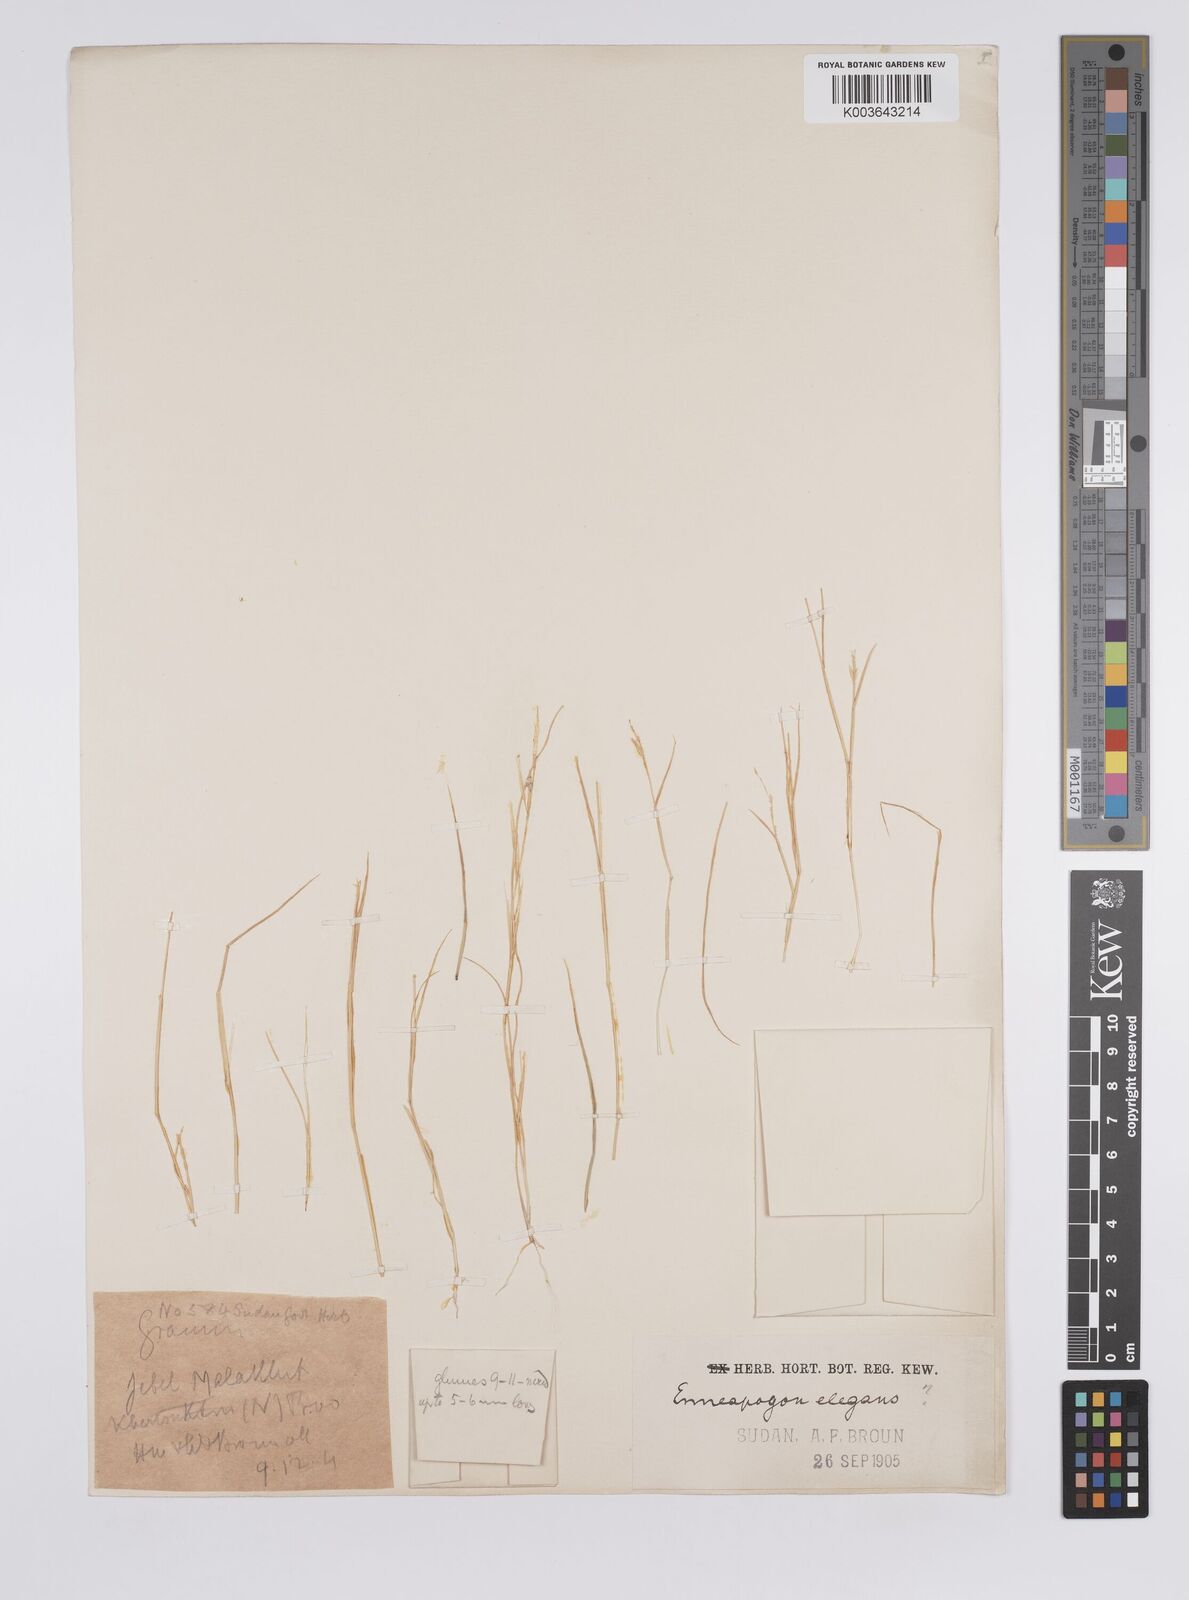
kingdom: Plantae
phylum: Tracheophyta
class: Liliopsida
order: Poales
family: Poaceae
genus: Enneapogon
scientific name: Enneapogon lophotrichus
